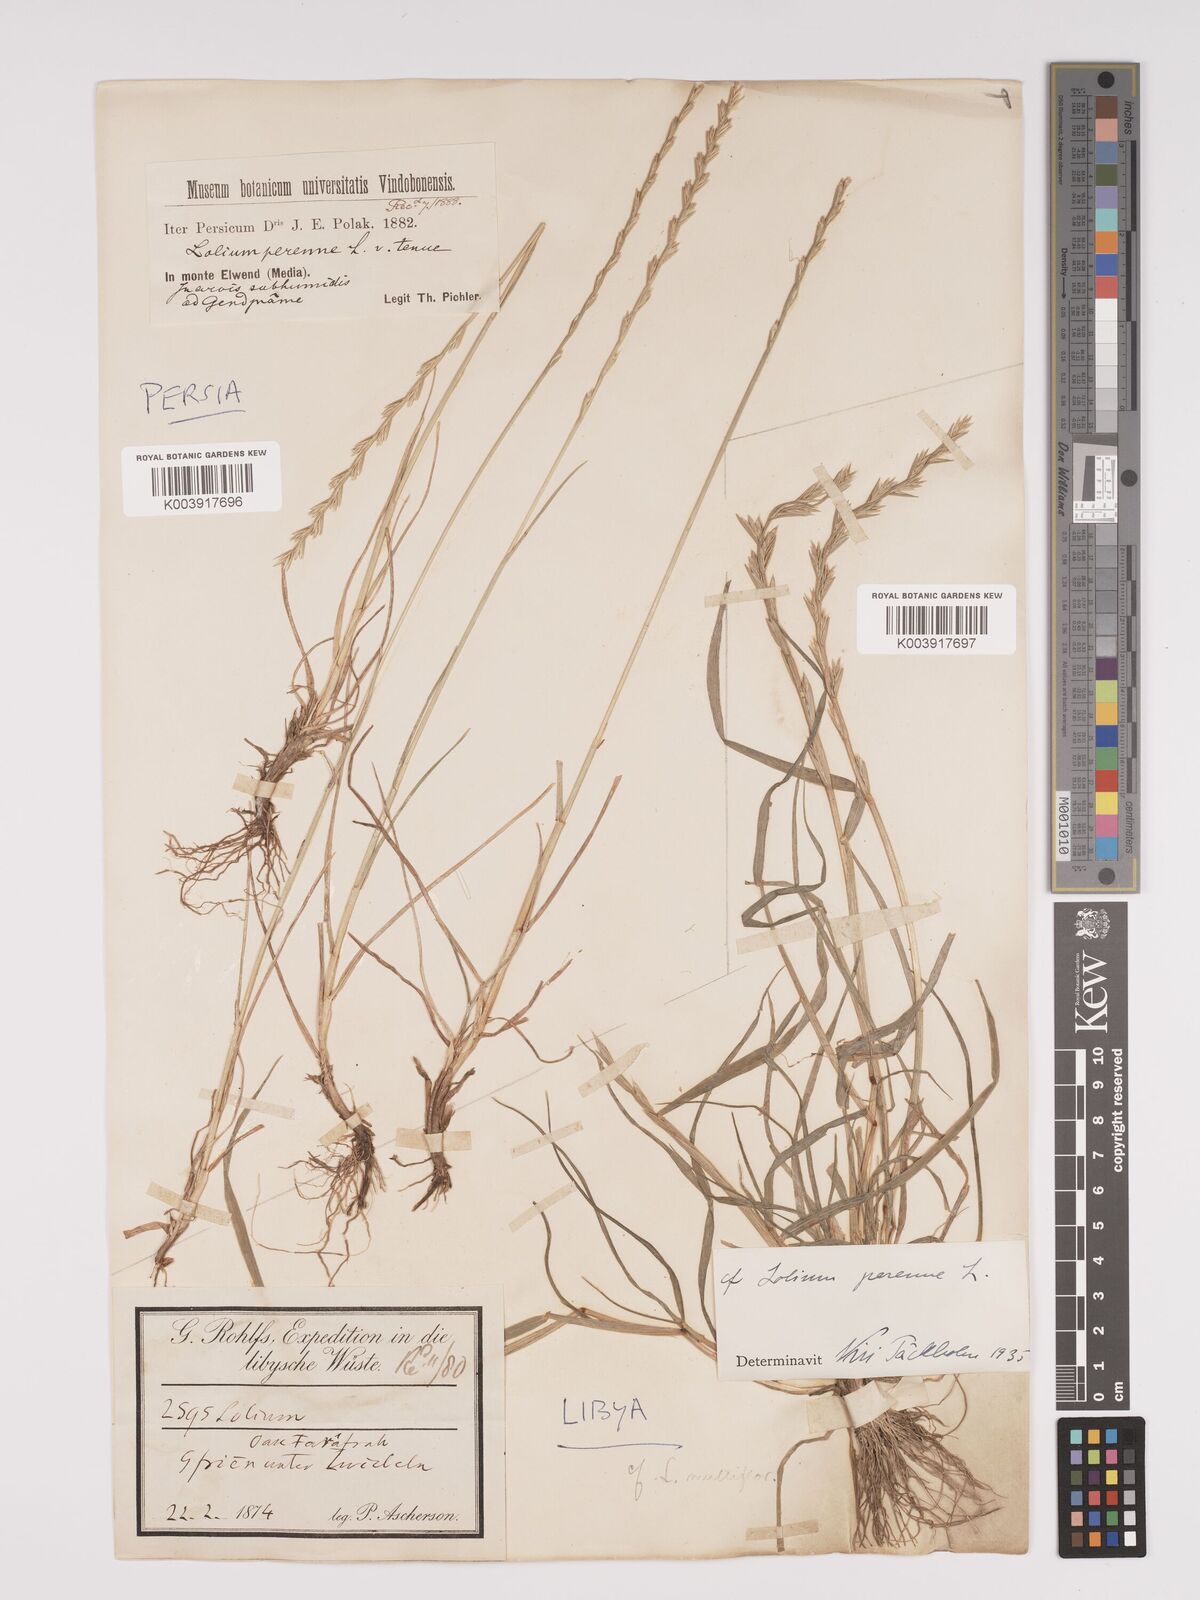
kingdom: Plantae
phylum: Tracheophyta
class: Liliopsida
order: Poales
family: Poaceae
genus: Lolium
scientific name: Lolium perenne
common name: Perennial ryegrass
